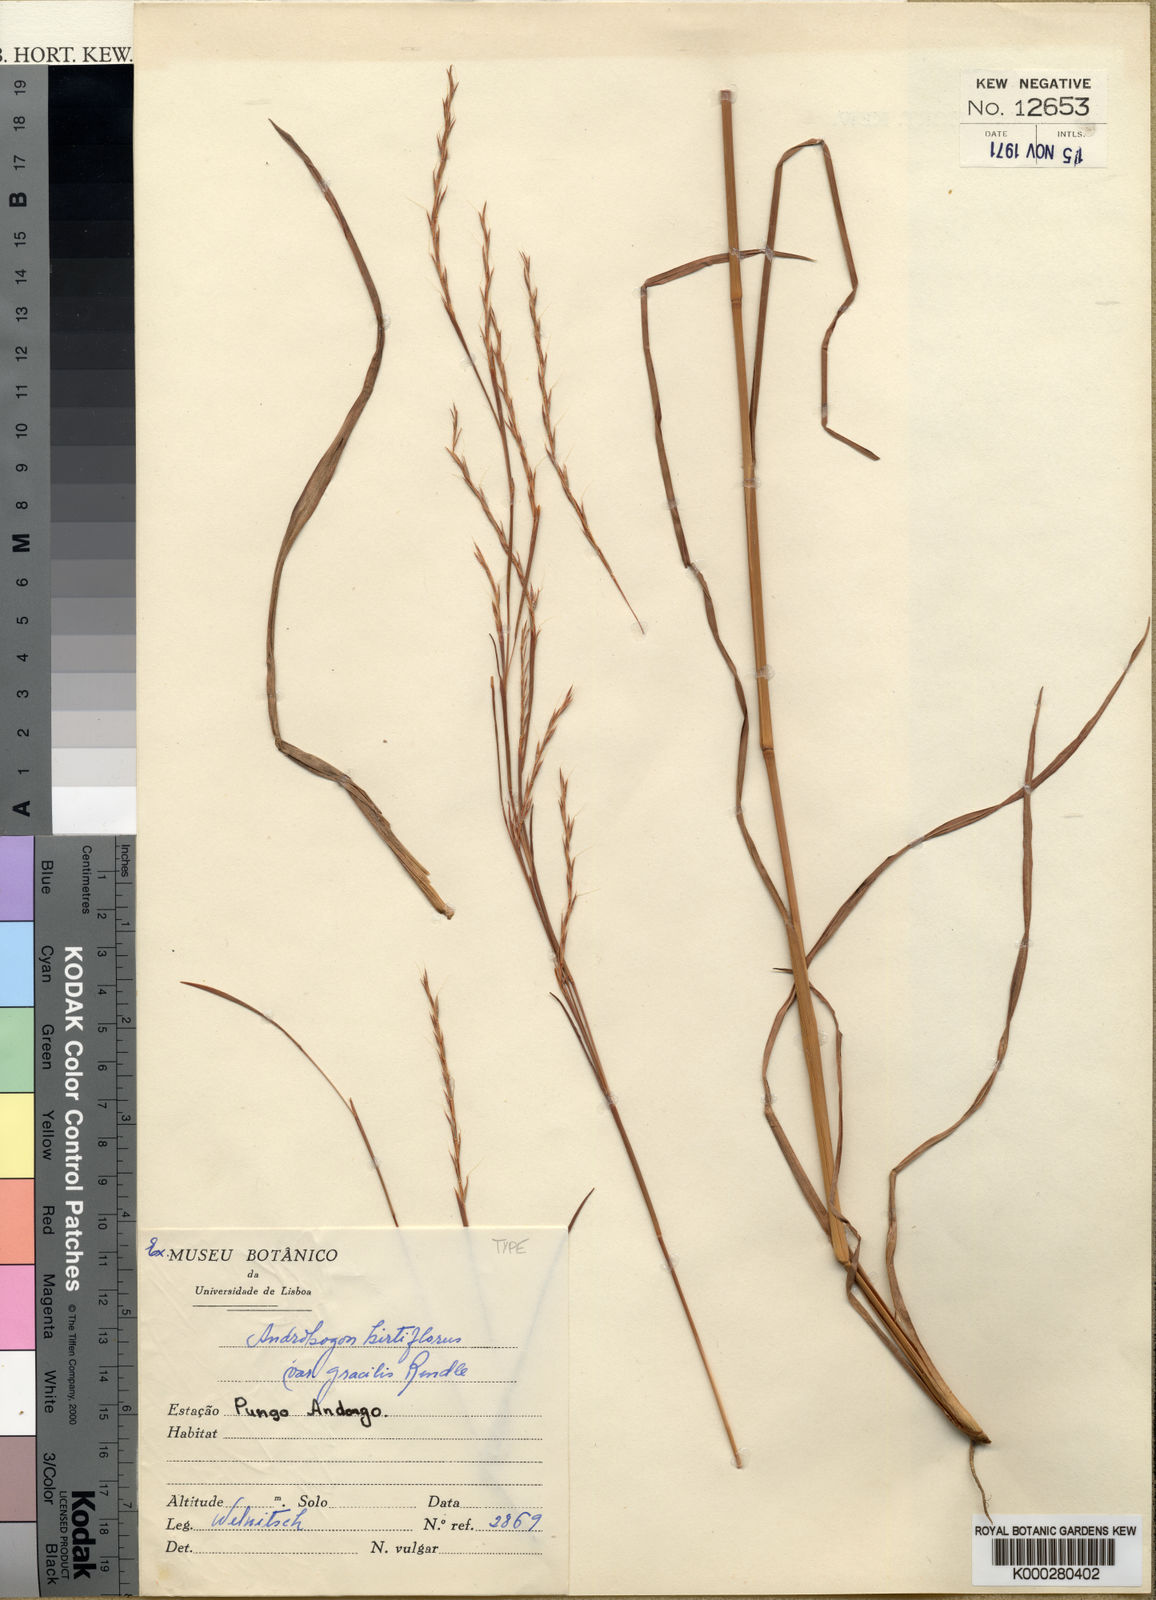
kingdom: Plantae
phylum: Tracheophyta
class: Liliopsida
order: Poales
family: Poaceae
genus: Schizachyrium
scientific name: Schizachyrium sanguineum
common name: Crimson bluestem
